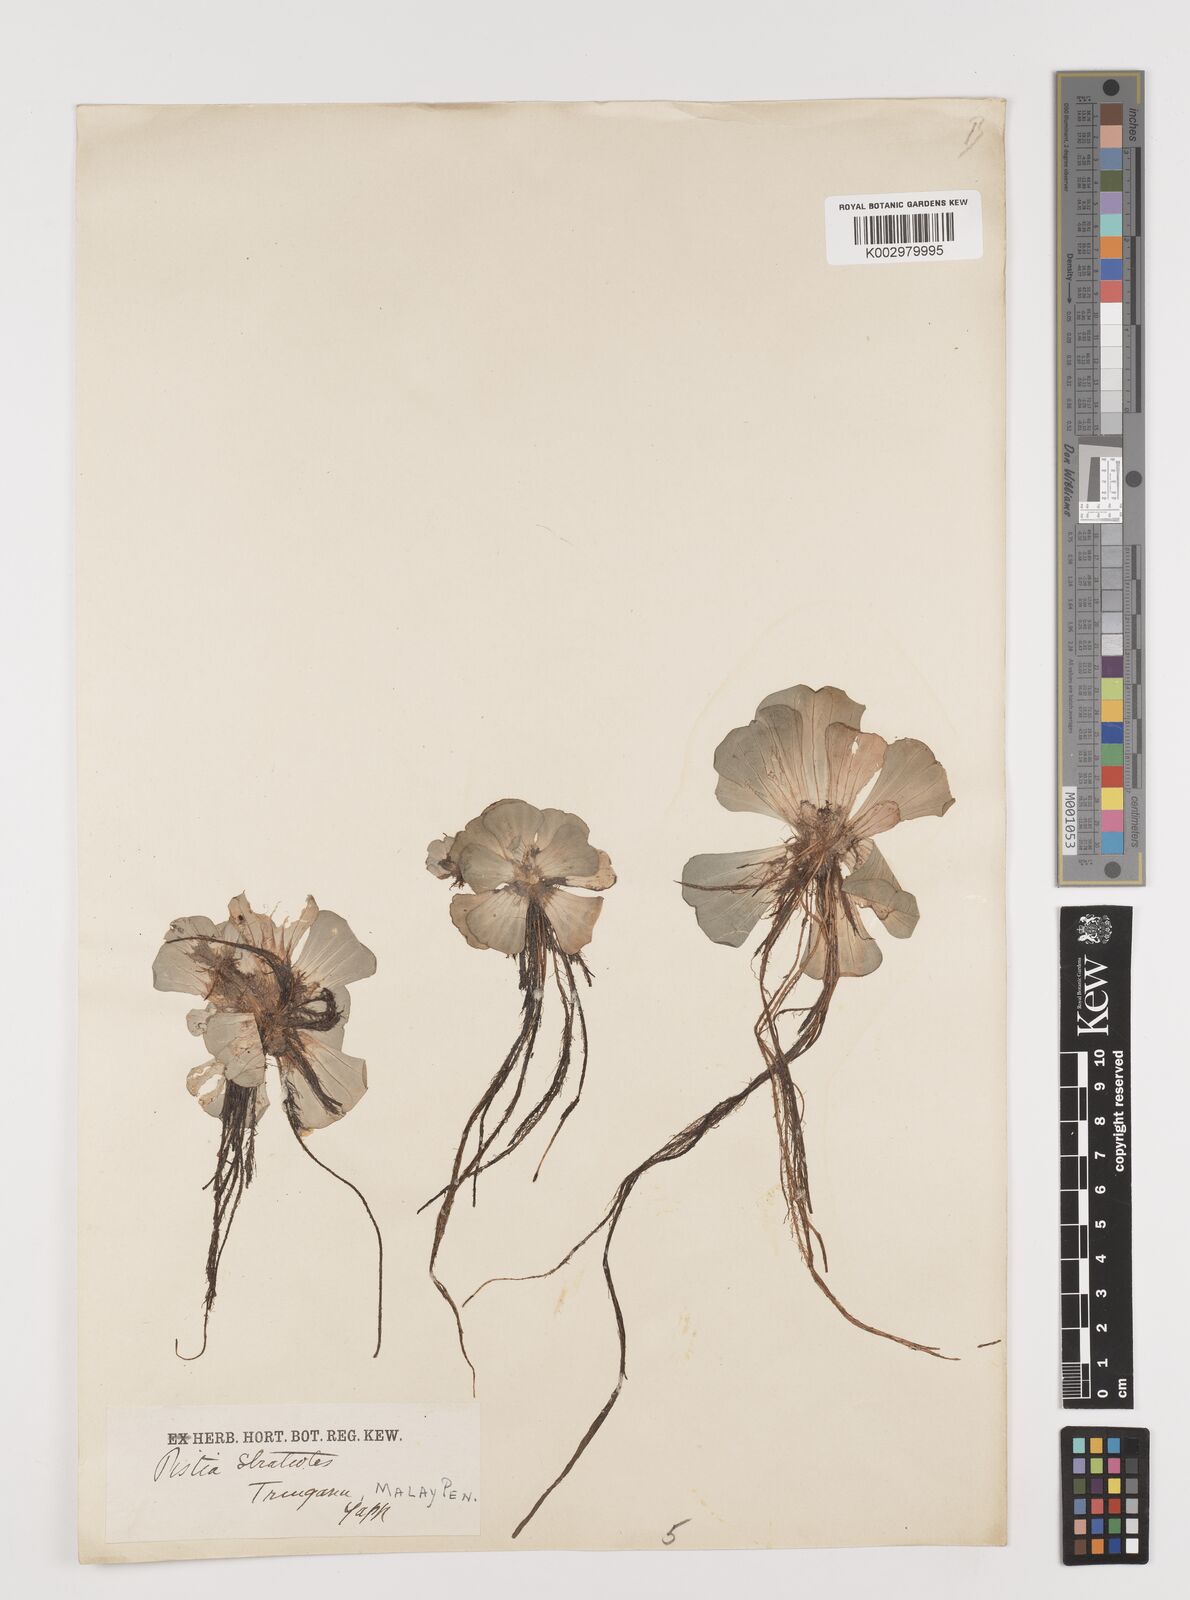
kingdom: Plantae
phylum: Tracheophyta
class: Liliopsida
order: Alismatales
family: Araceae
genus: Pistia
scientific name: Pistia stratiotes
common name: Water lettuce
